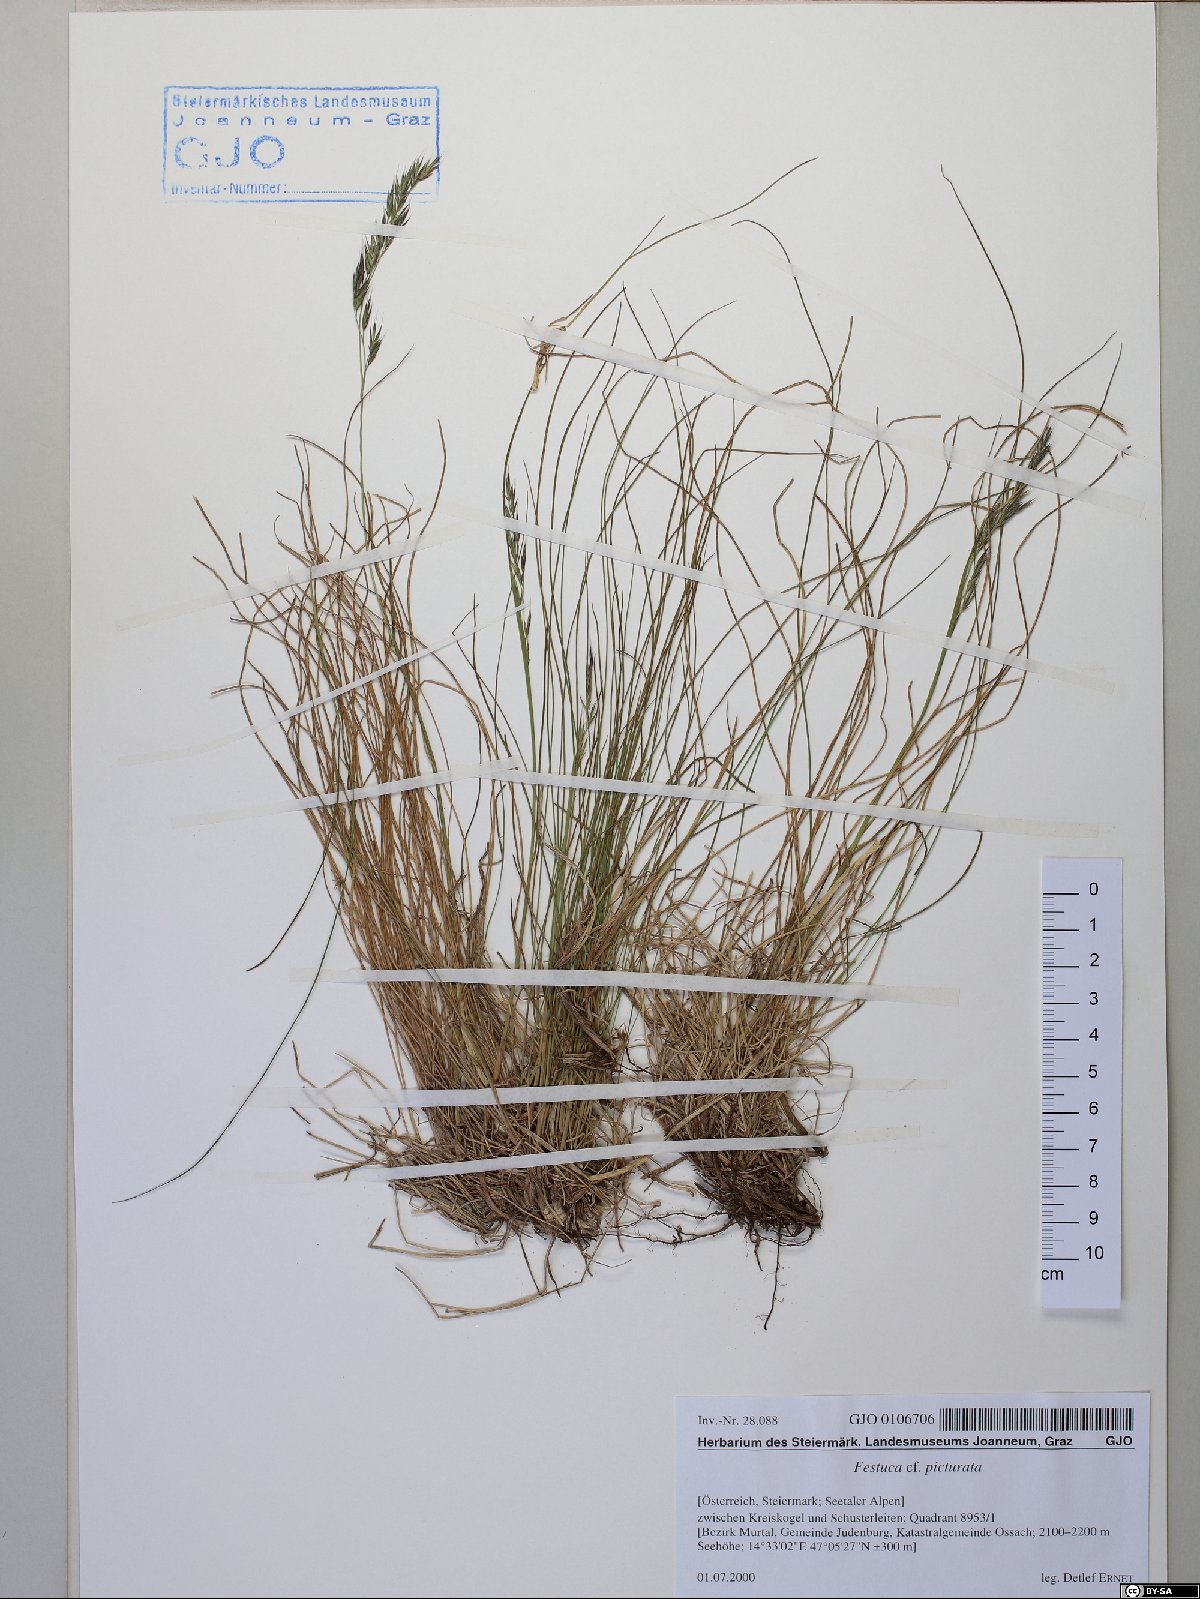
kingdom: Plantae
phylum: Tracheophyta
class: Liliopsida
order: Poales
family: Poaceae
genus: Festuca
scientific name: Festuca picturata
